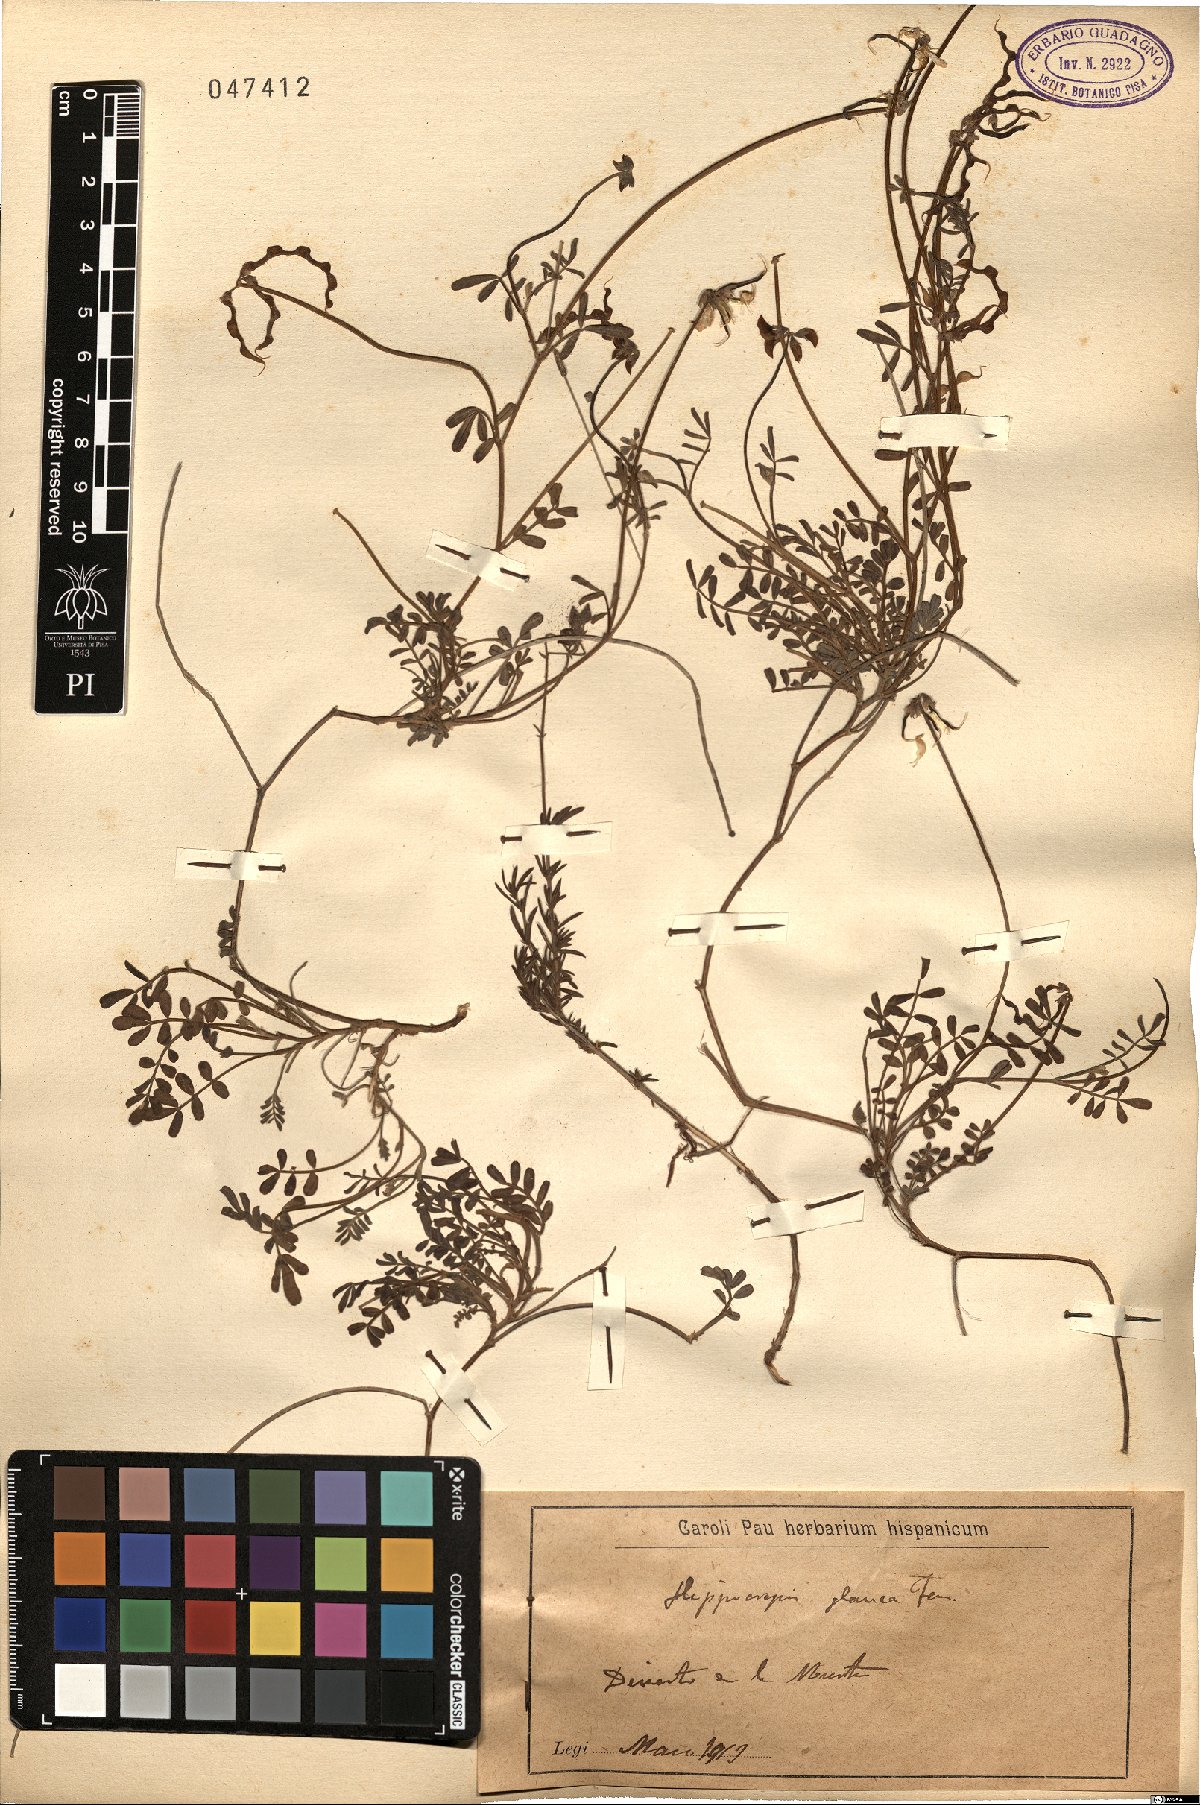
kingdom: Plantae
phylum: Tracheophyta
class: Magnoliopsida
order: Fabales
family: Fabaceae
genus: Hippocrepis
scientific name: Hippocrepis glauca
